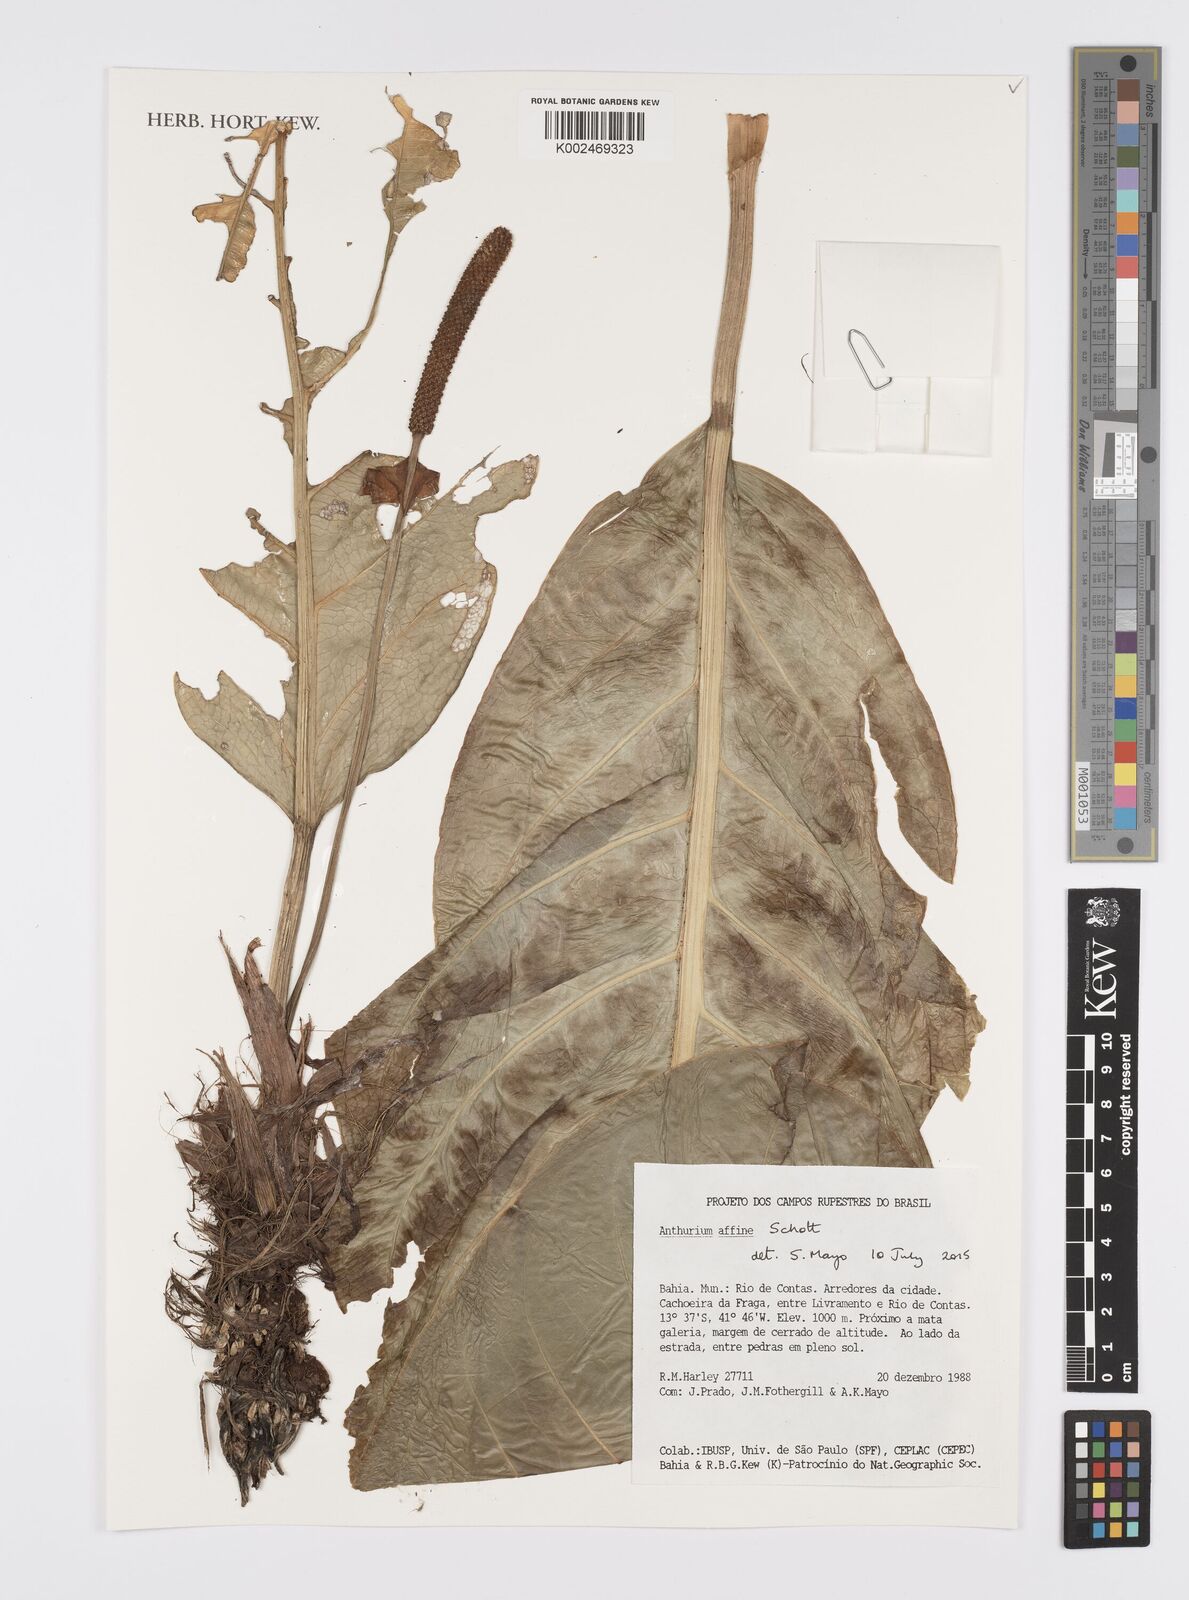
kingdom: Plantae
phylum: Tracheophyta
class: Liliopsida
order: Alismatales
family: Araceae
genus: Anthurium
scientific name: Anthurium affine
